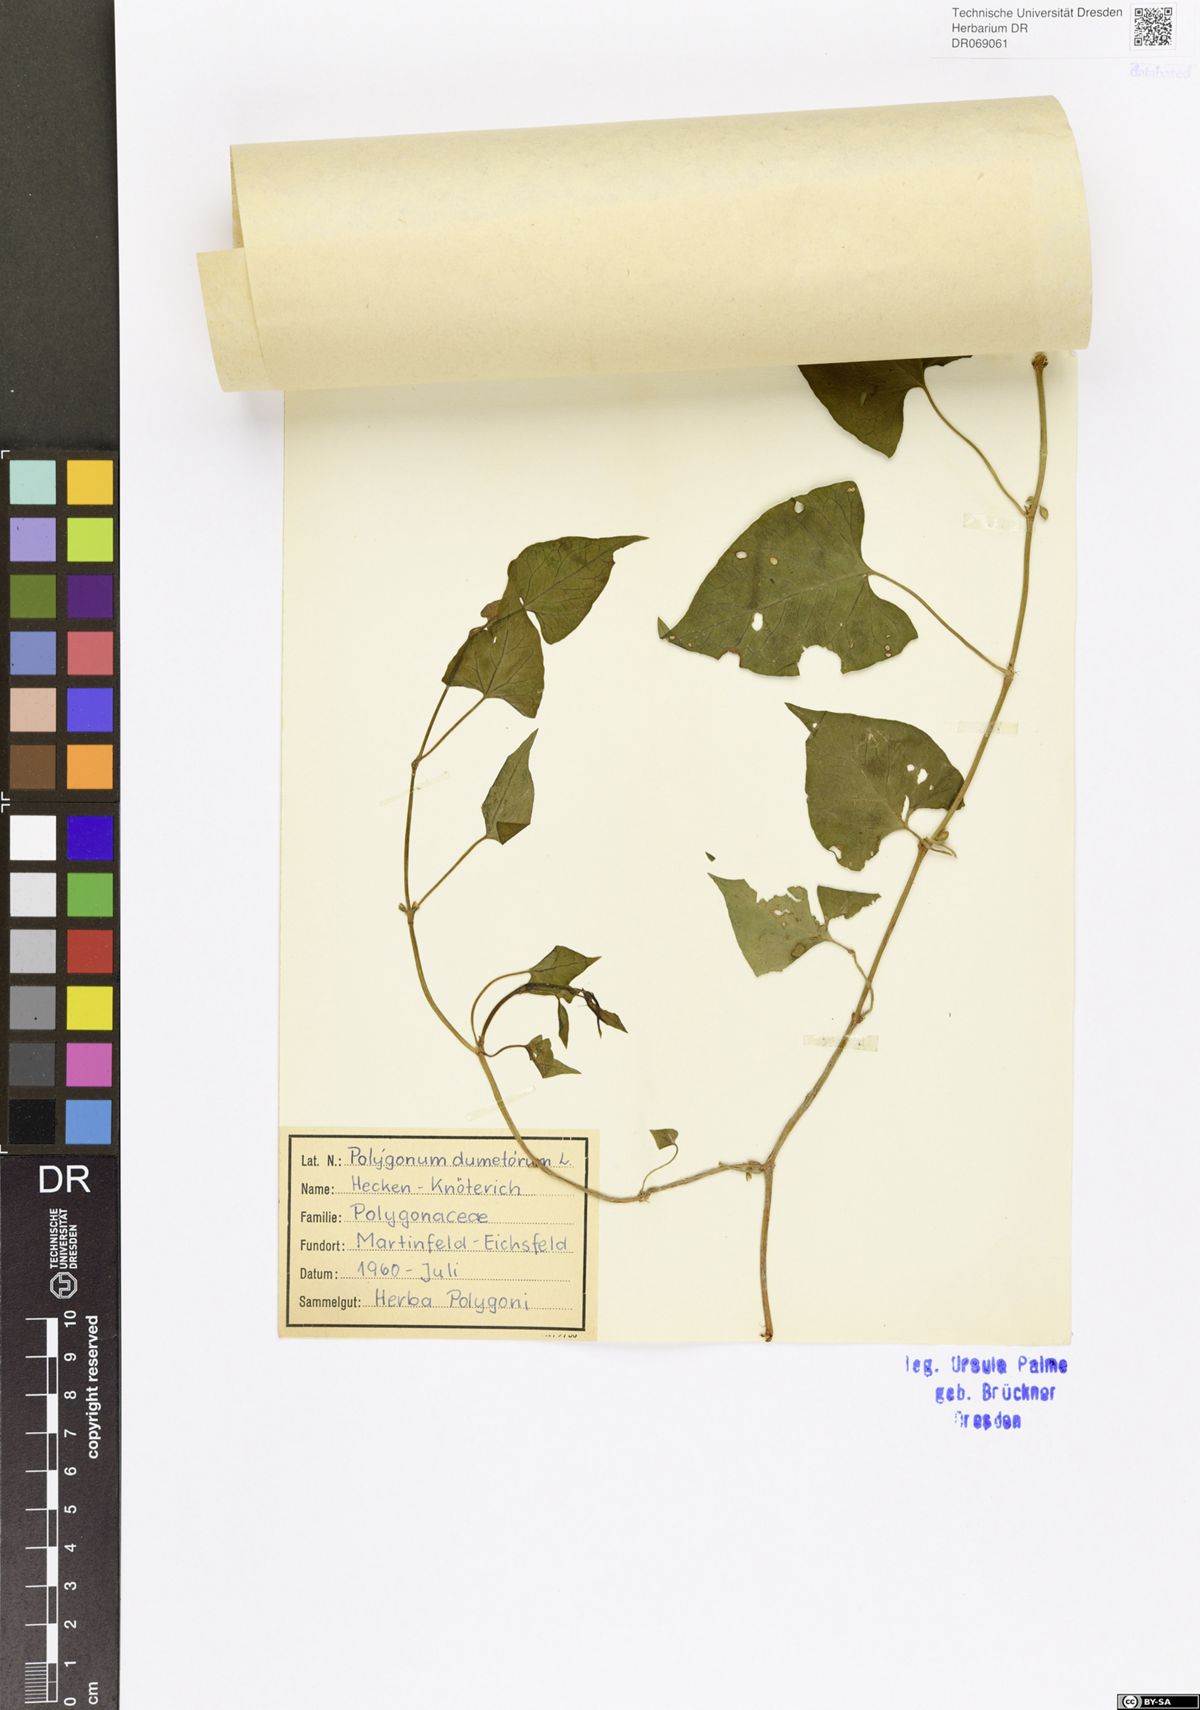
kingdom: Plantae
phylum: Tracheophyta
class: Magnoliopsida
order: Caryophyllales
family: Polygonaceae
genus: Fallopia
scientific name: Fallopia dumetorum
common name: Copse-bindweed
